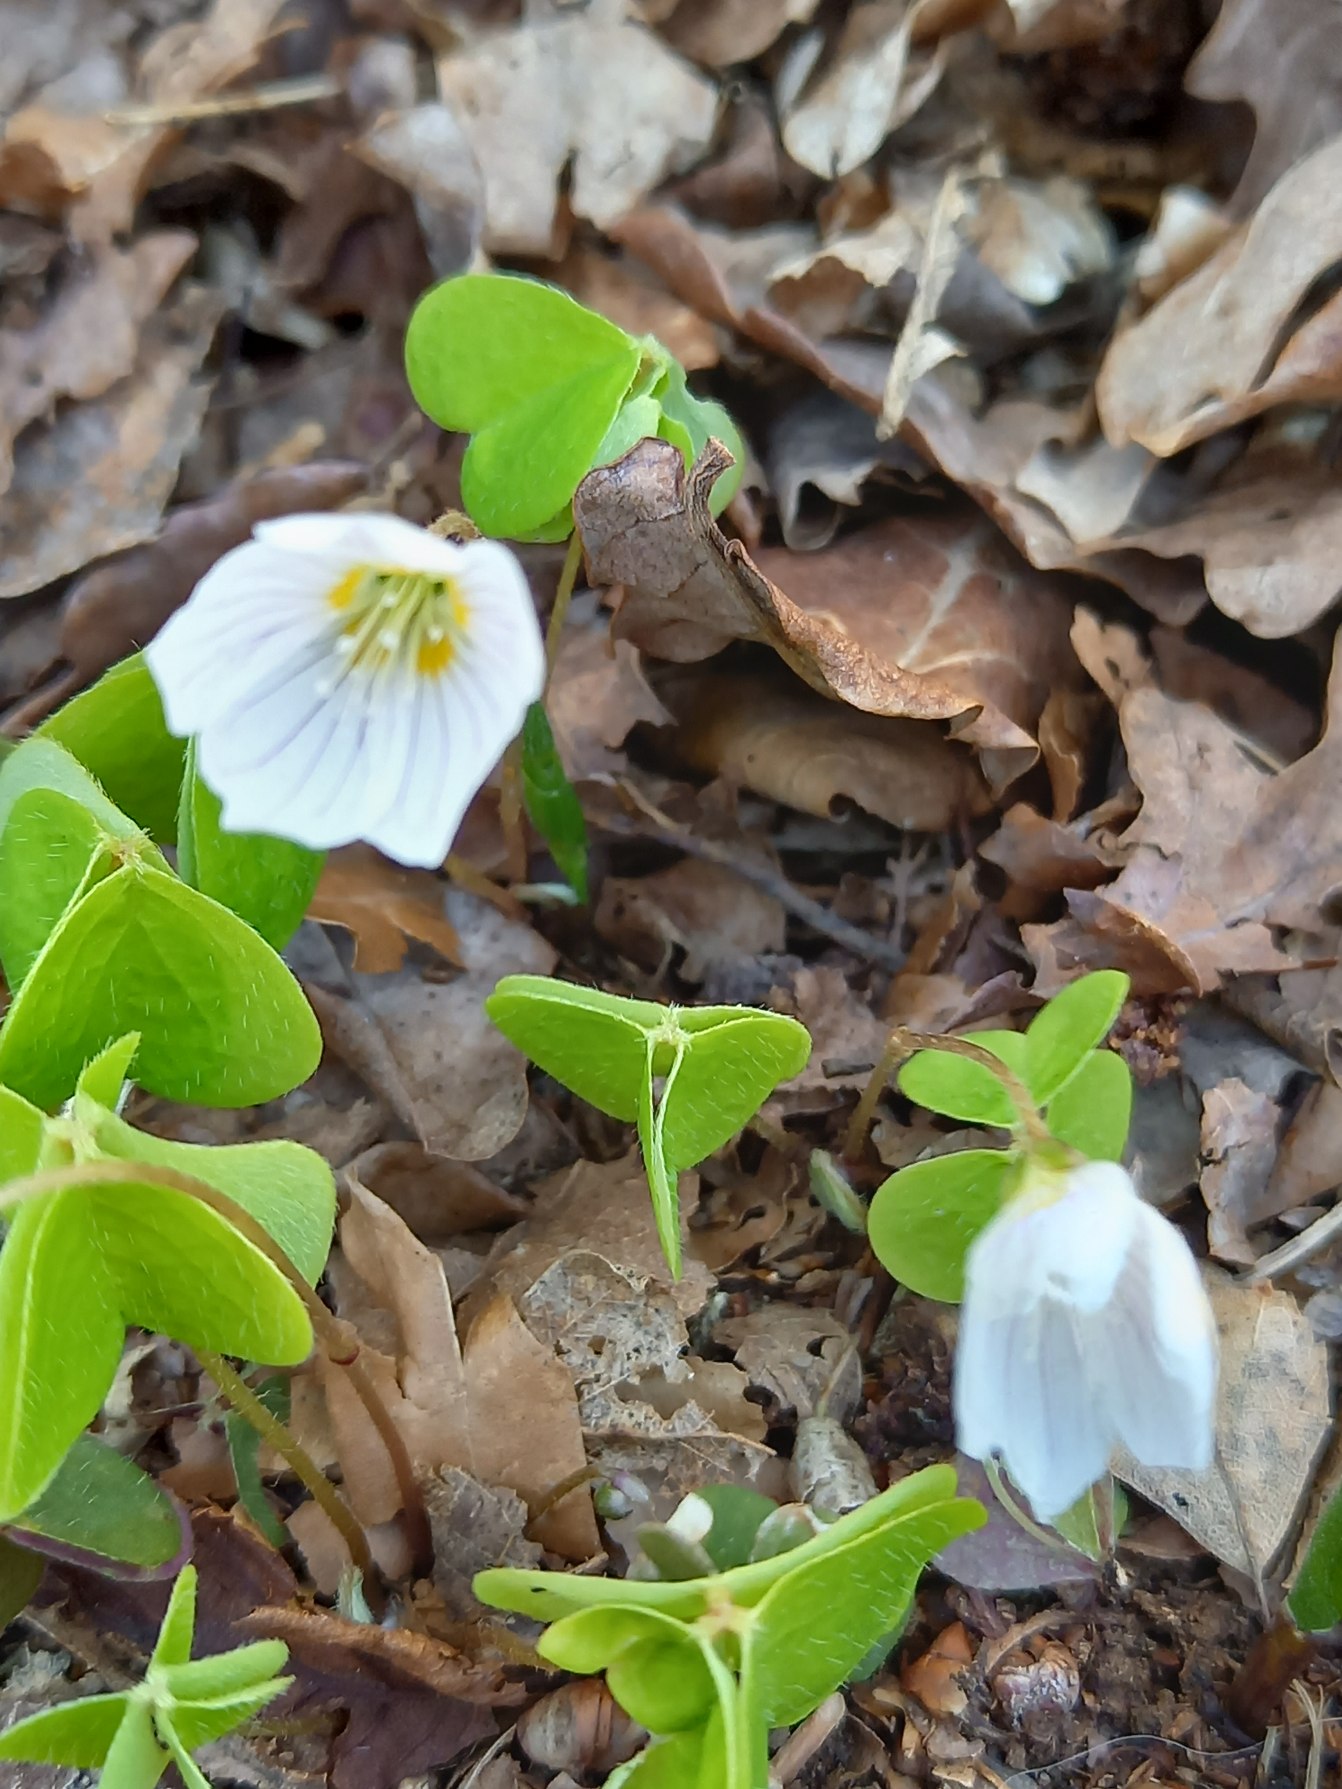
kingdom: Plantae
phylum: Tracheophyta
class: Magnoliopsida
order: Oxalidales
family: Oxalidaceae
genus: Oxalis
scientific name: Oxalis acetosella
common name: Skovsyre
